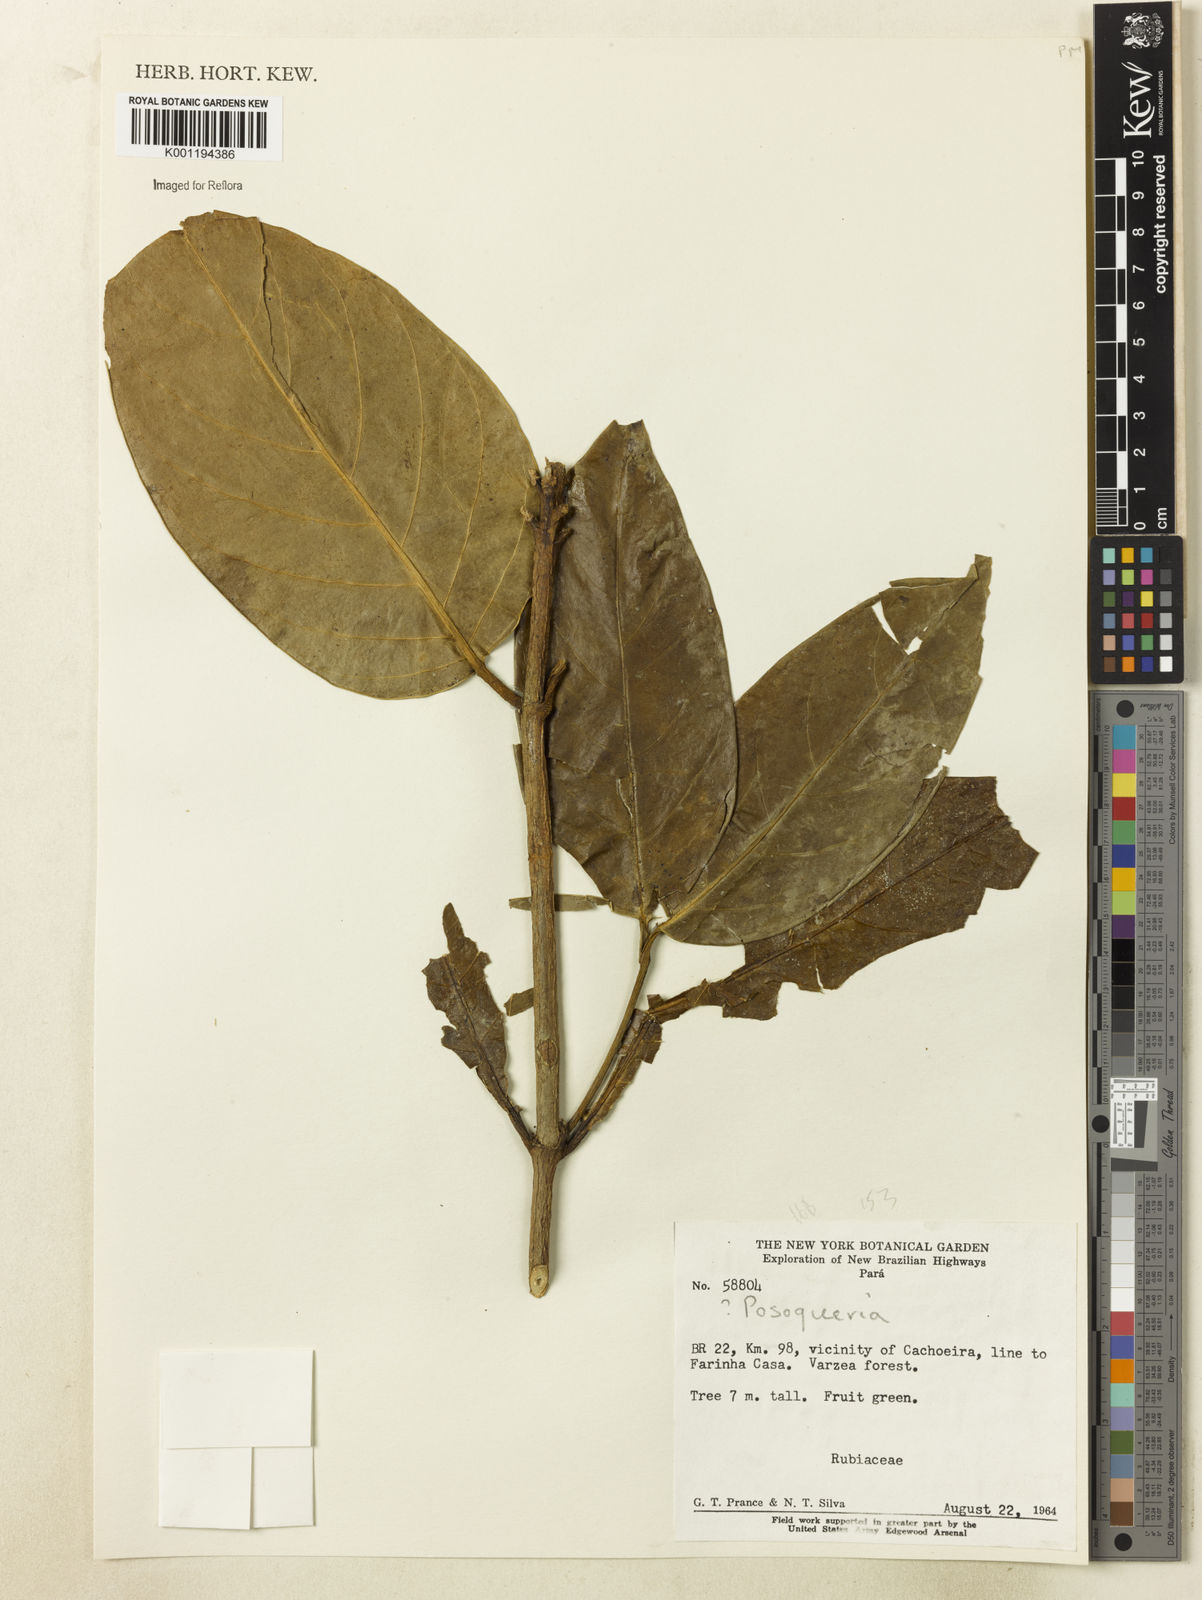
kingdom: Plantae
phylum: Tracheophyta
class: Magnoliopsida
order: Gentianales
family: Rubiaceae
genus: Posoqueria
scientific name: Posoqueria
